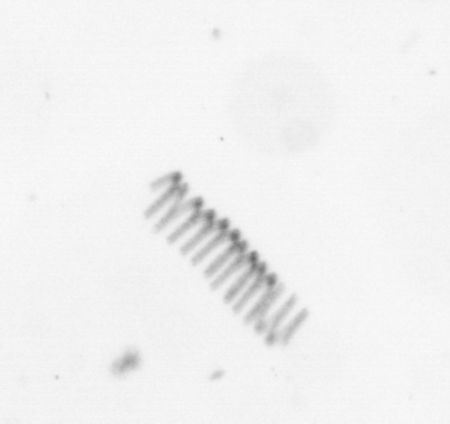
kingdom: Chromista
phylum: Ochrophyta
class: Bacillariophyceae
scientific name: Bacillariophyceae
